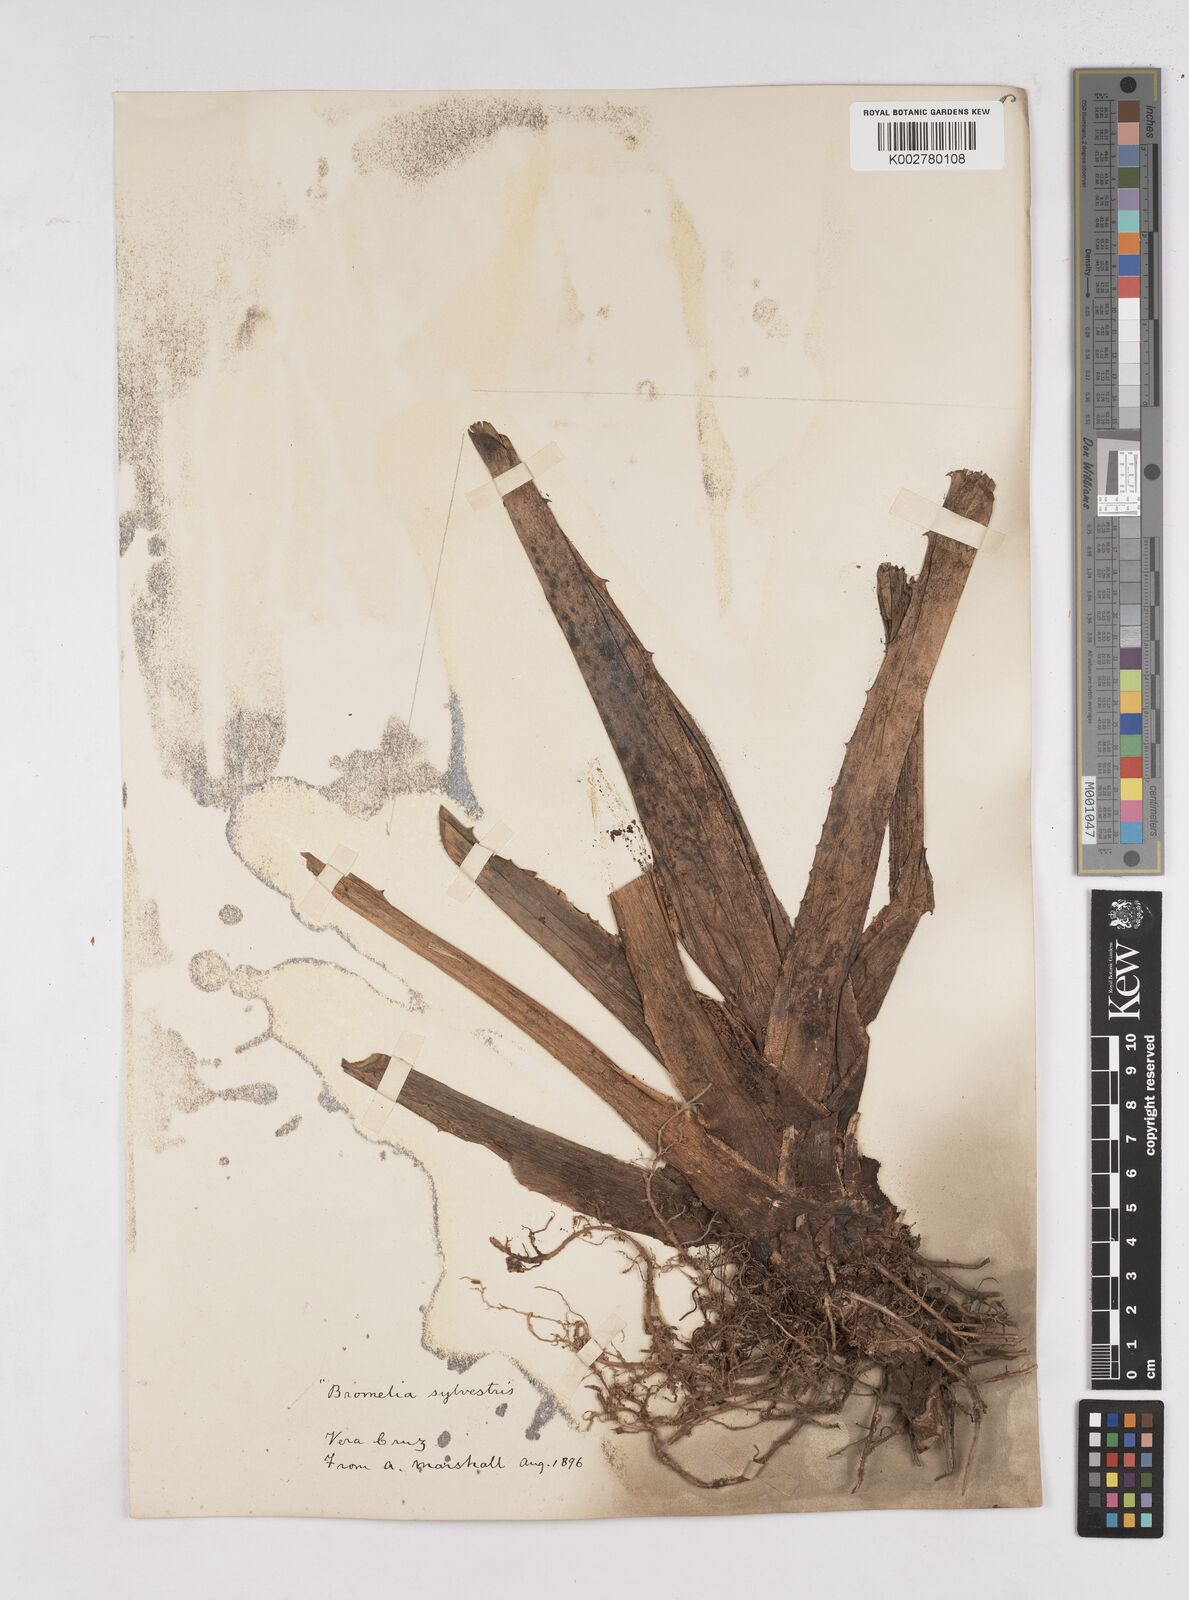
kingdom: Plantae
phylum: Tracheophyta
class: Liliopsida
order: Poales
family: Bromeliaceae
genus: Bromelia
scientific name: Bromelia alsodes
